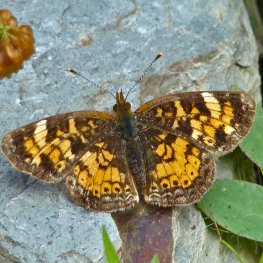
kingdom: Animalia
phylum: Arthropoda
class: Insecta
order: Lepidoptera
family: Nymphalidae
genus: Phyciodes
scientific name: Phyciodes tharos
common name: Northern Crescent
